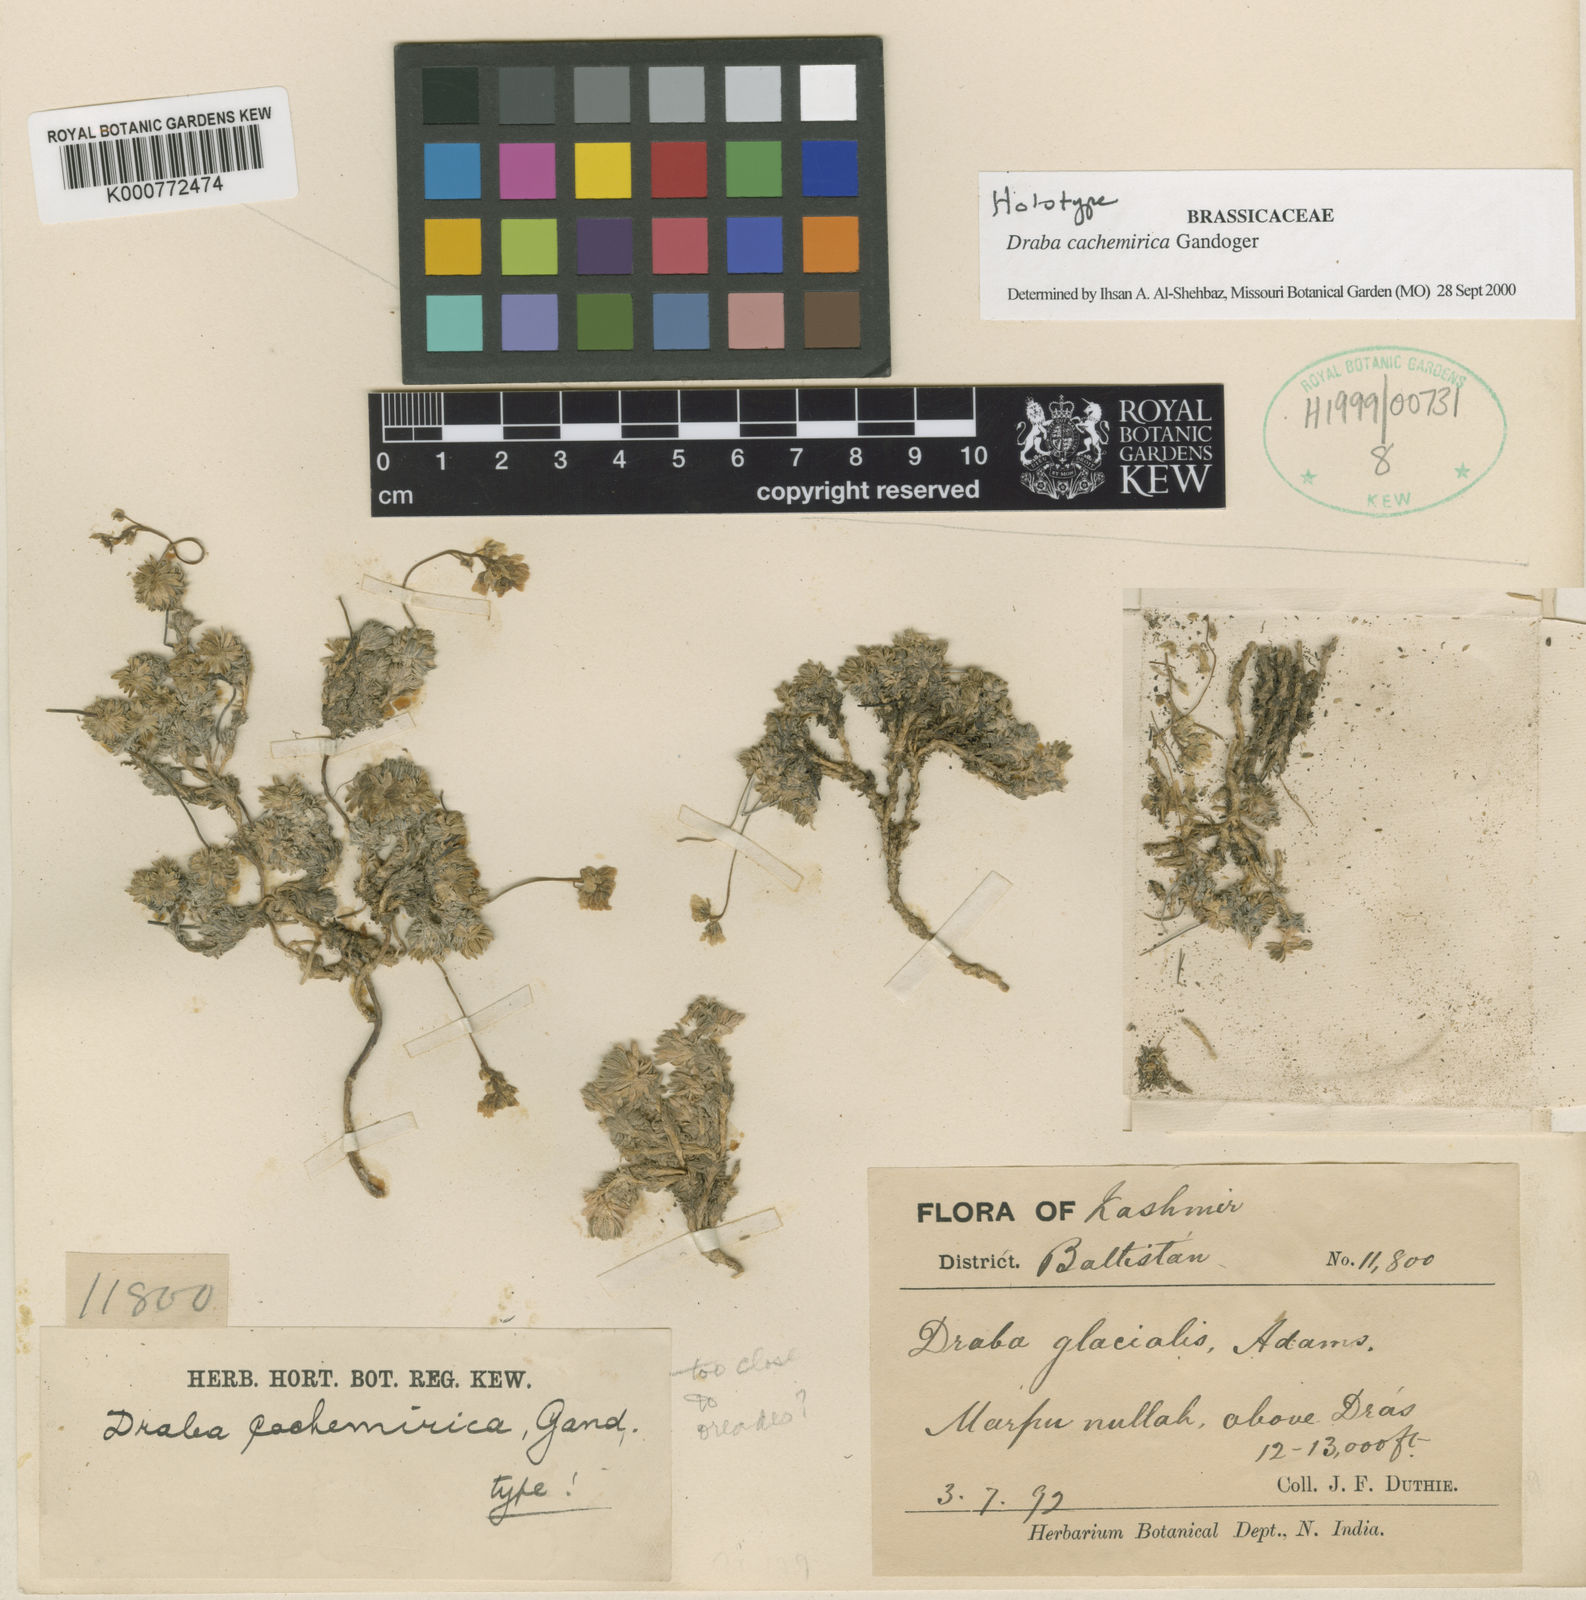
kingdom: Plantae
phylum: Tracheophyta
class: Magnoliopsida
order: Brassicales
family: Brassicaceae
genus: Draba
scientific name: Draba cachemirica
